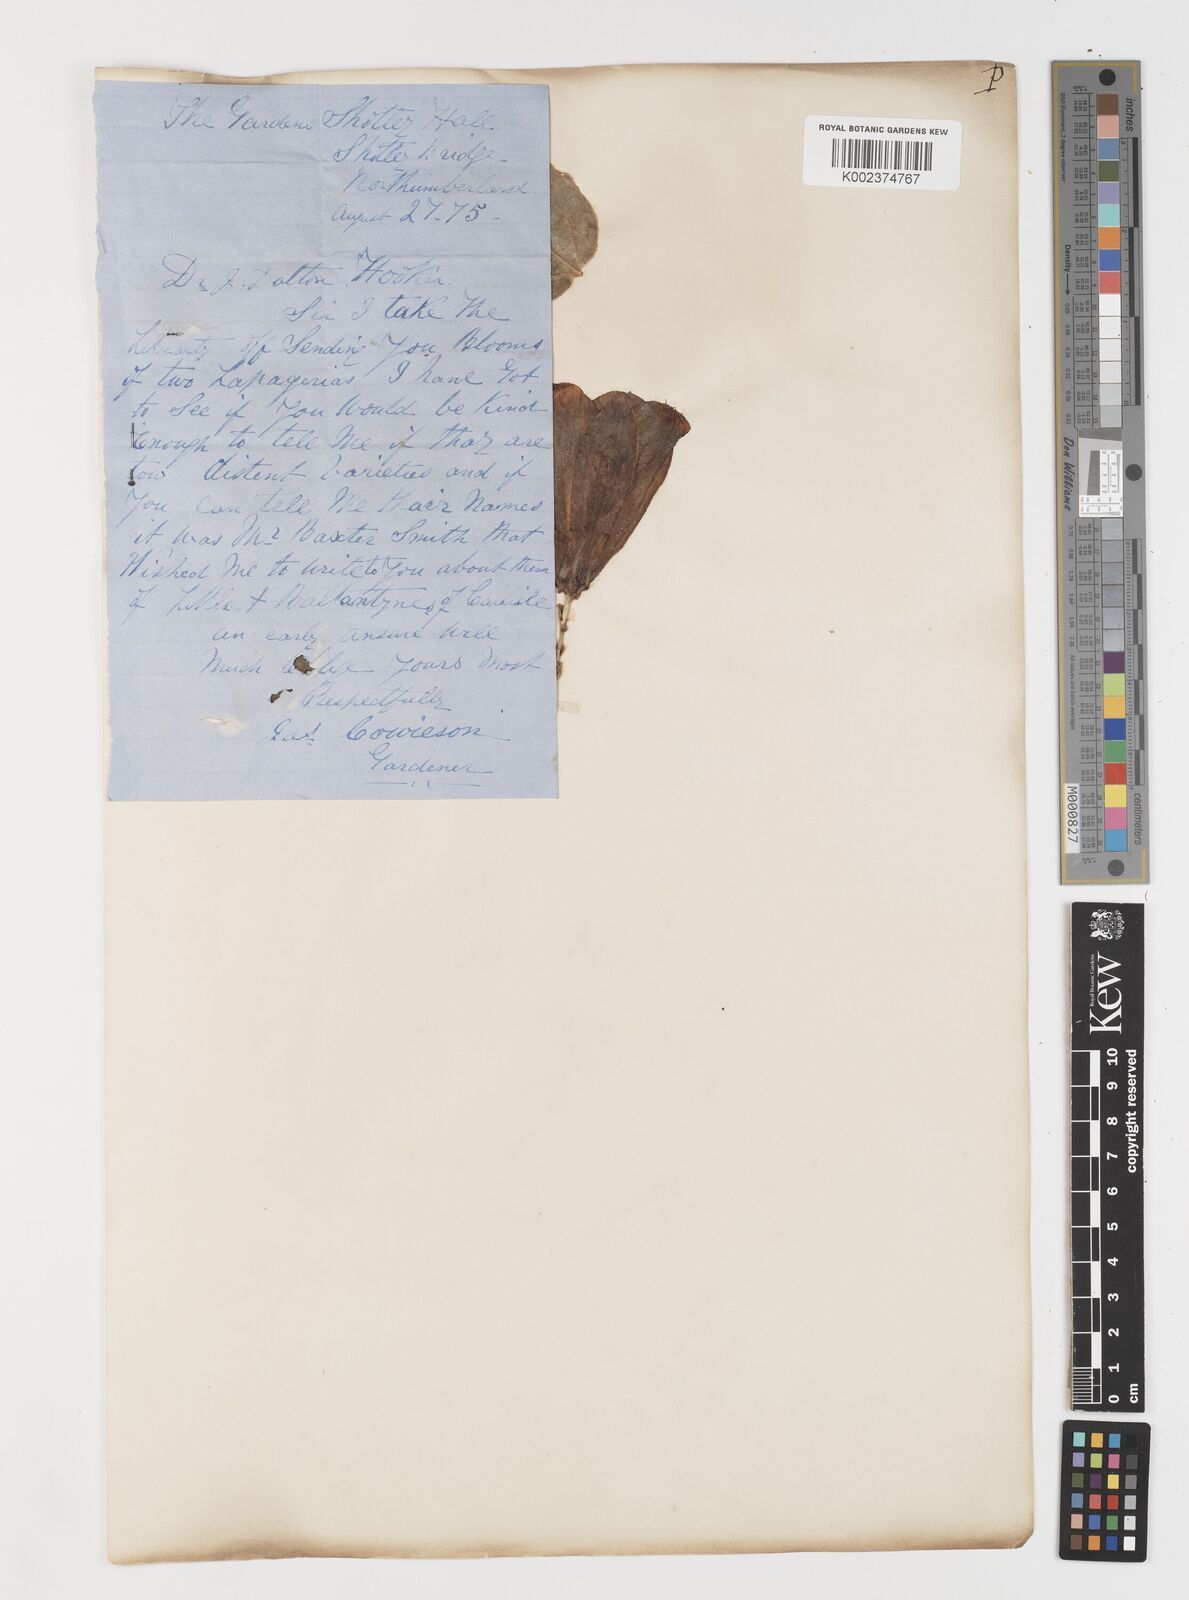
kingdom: Plantae
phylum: Tracheophyta
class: Liliopsida
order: Liliales
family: Philesiaceae
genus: Lapageria
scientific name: Lapageria rosea
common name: Chilean-bellflower
